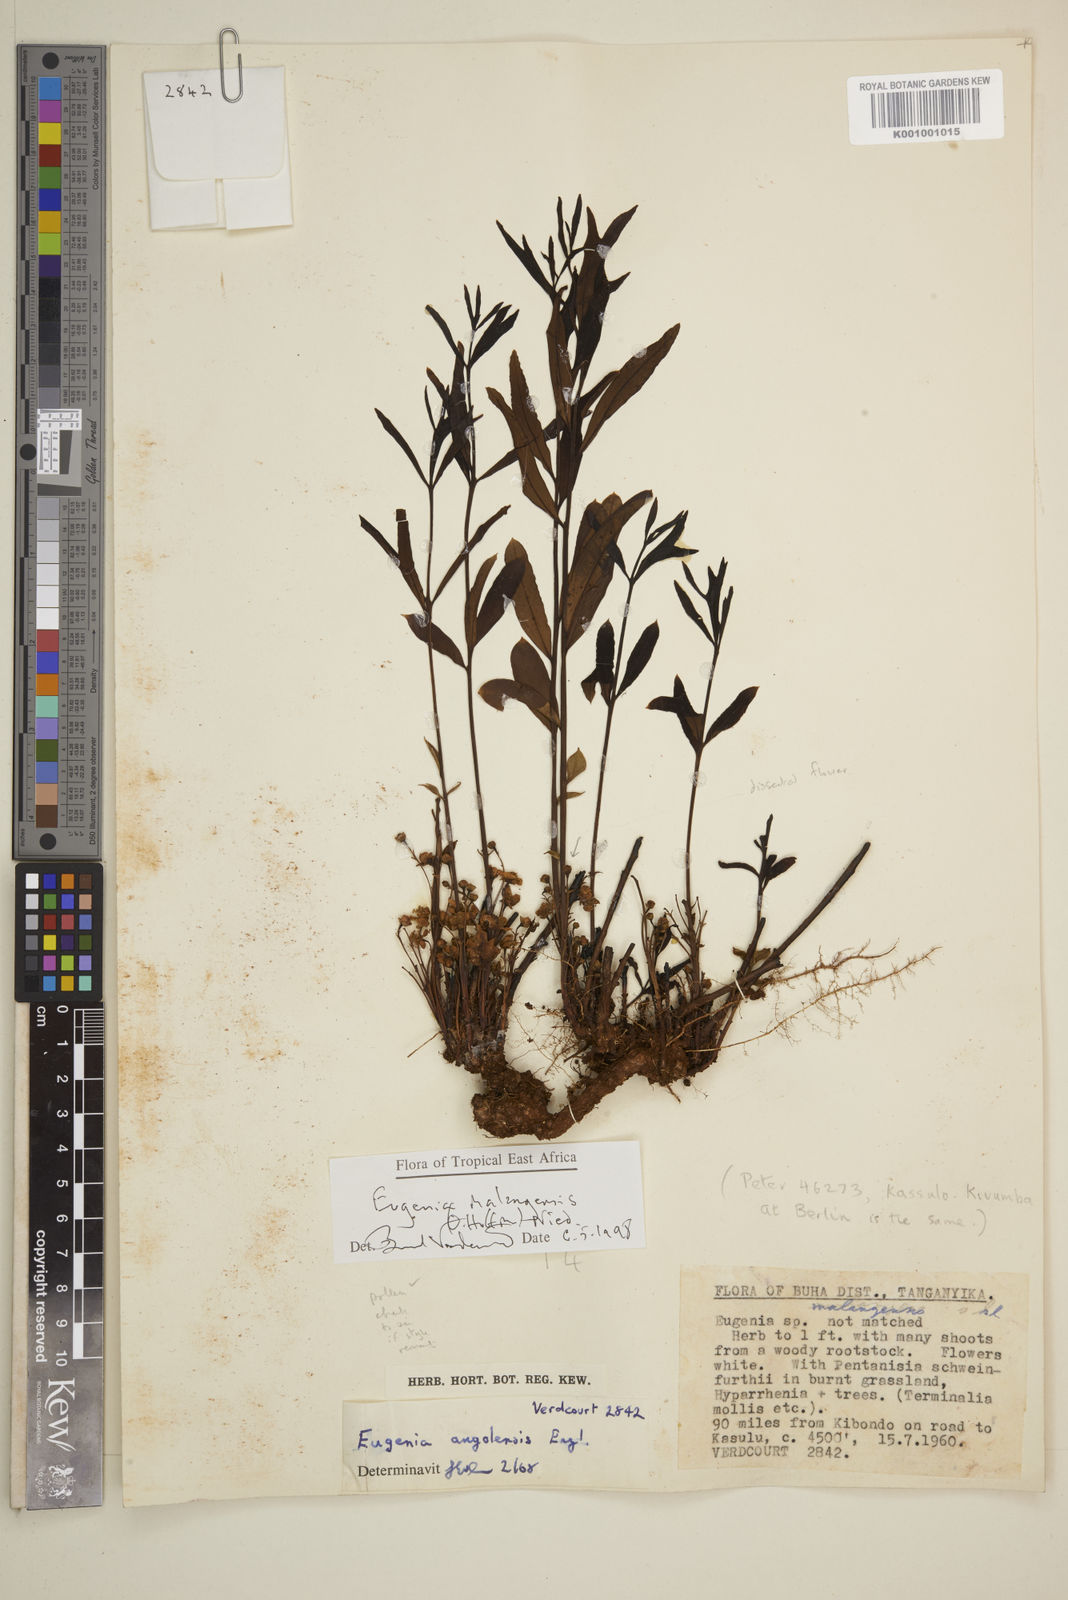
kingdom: Plantae
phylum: Tracheophyta
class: Magnoliopsida
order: Myrtales
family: Myrtaceae
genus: Eugenia
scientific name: Eugenia malangensis
